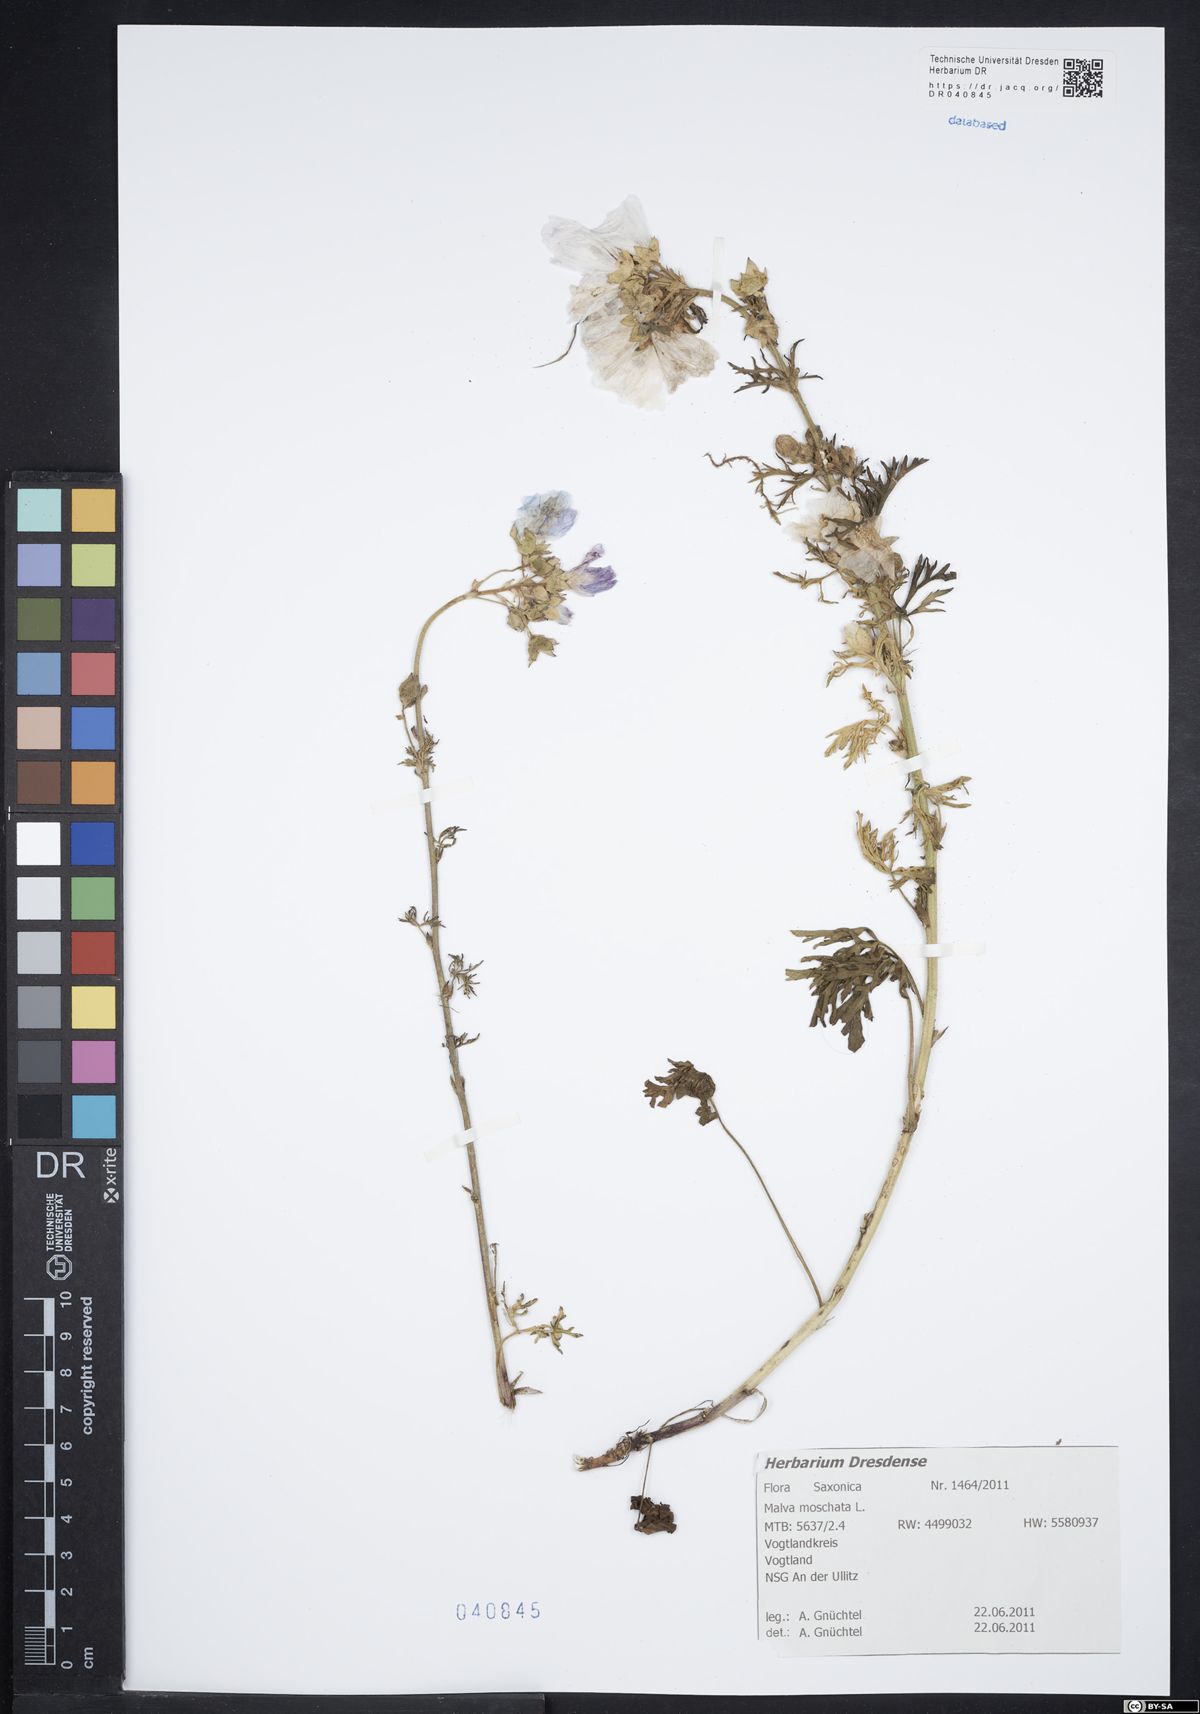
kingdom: Plantae
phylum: Tracheophyta
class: Magnoliopsida
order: Malvales
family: Malvaceae
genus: Malva
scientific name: Malva moschata
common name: Musk mallow
